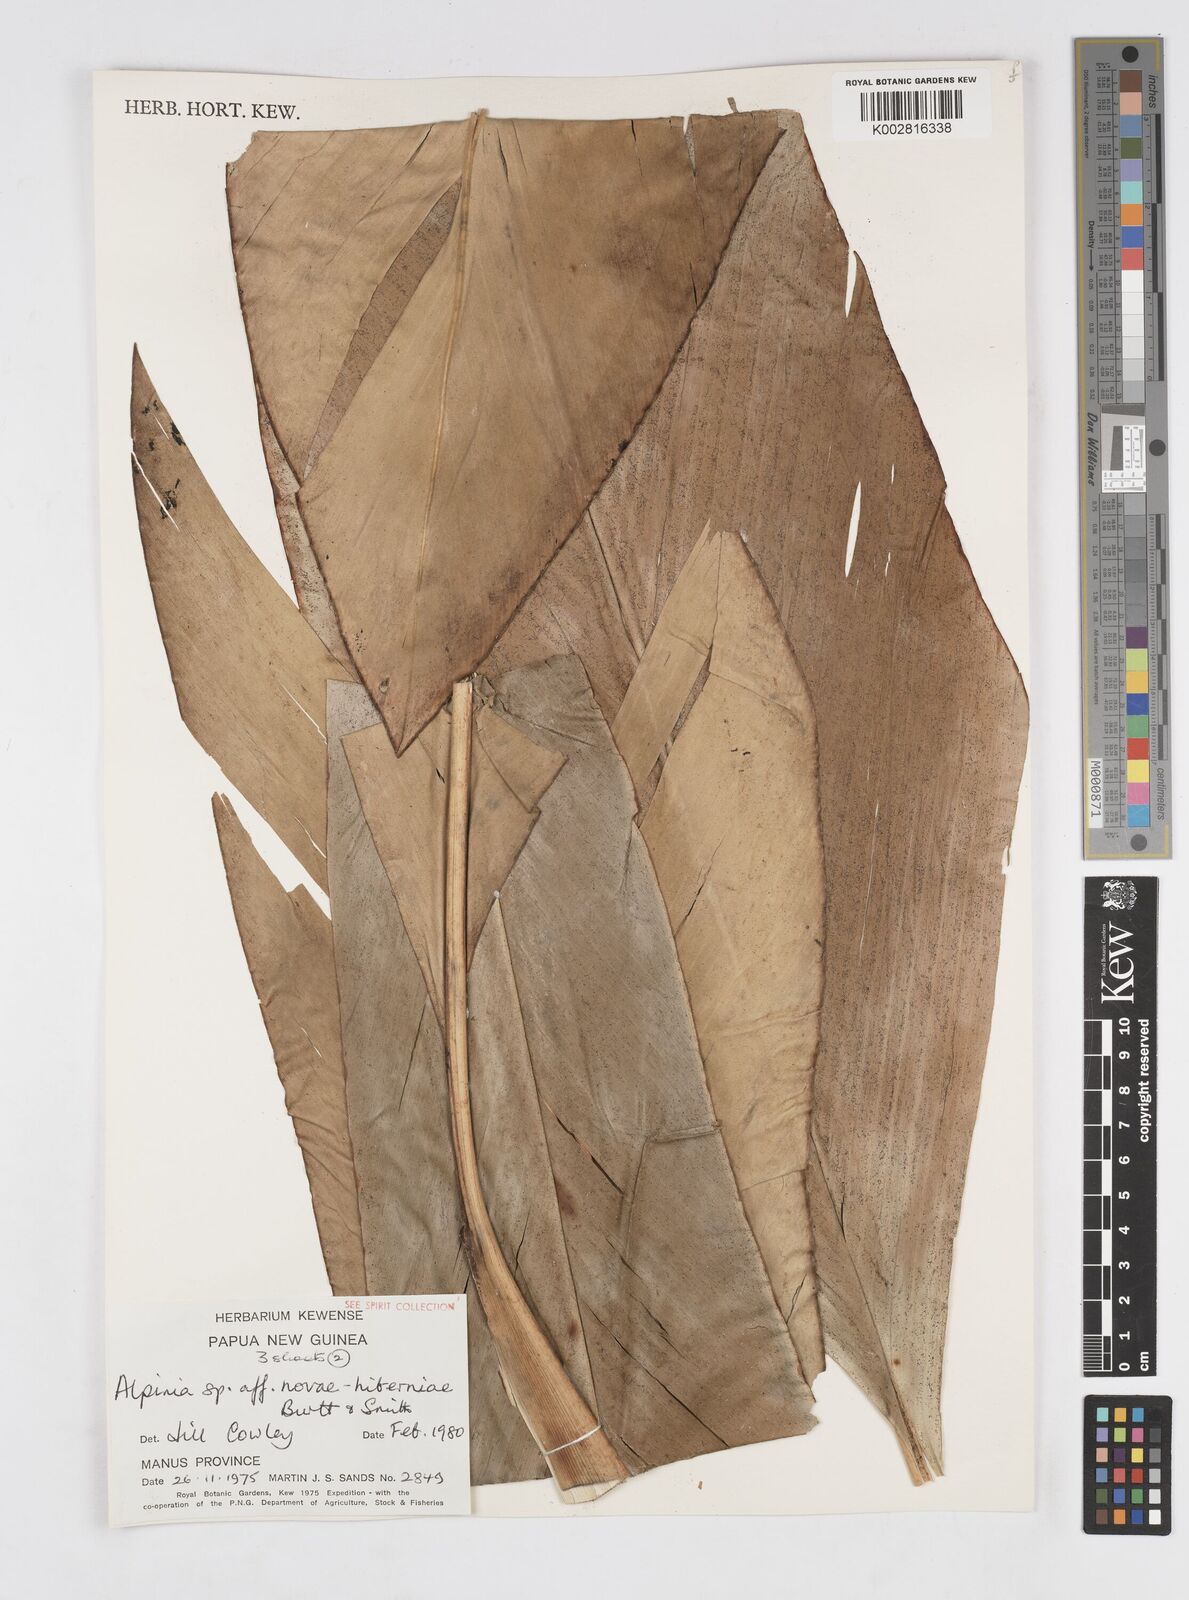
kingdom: Plantae
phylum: Tracheophyta
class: Liliopsida
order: Zingiberales
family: Zingiberaceae
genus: Alpinia
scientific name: Alpinia novae-hiberniae
